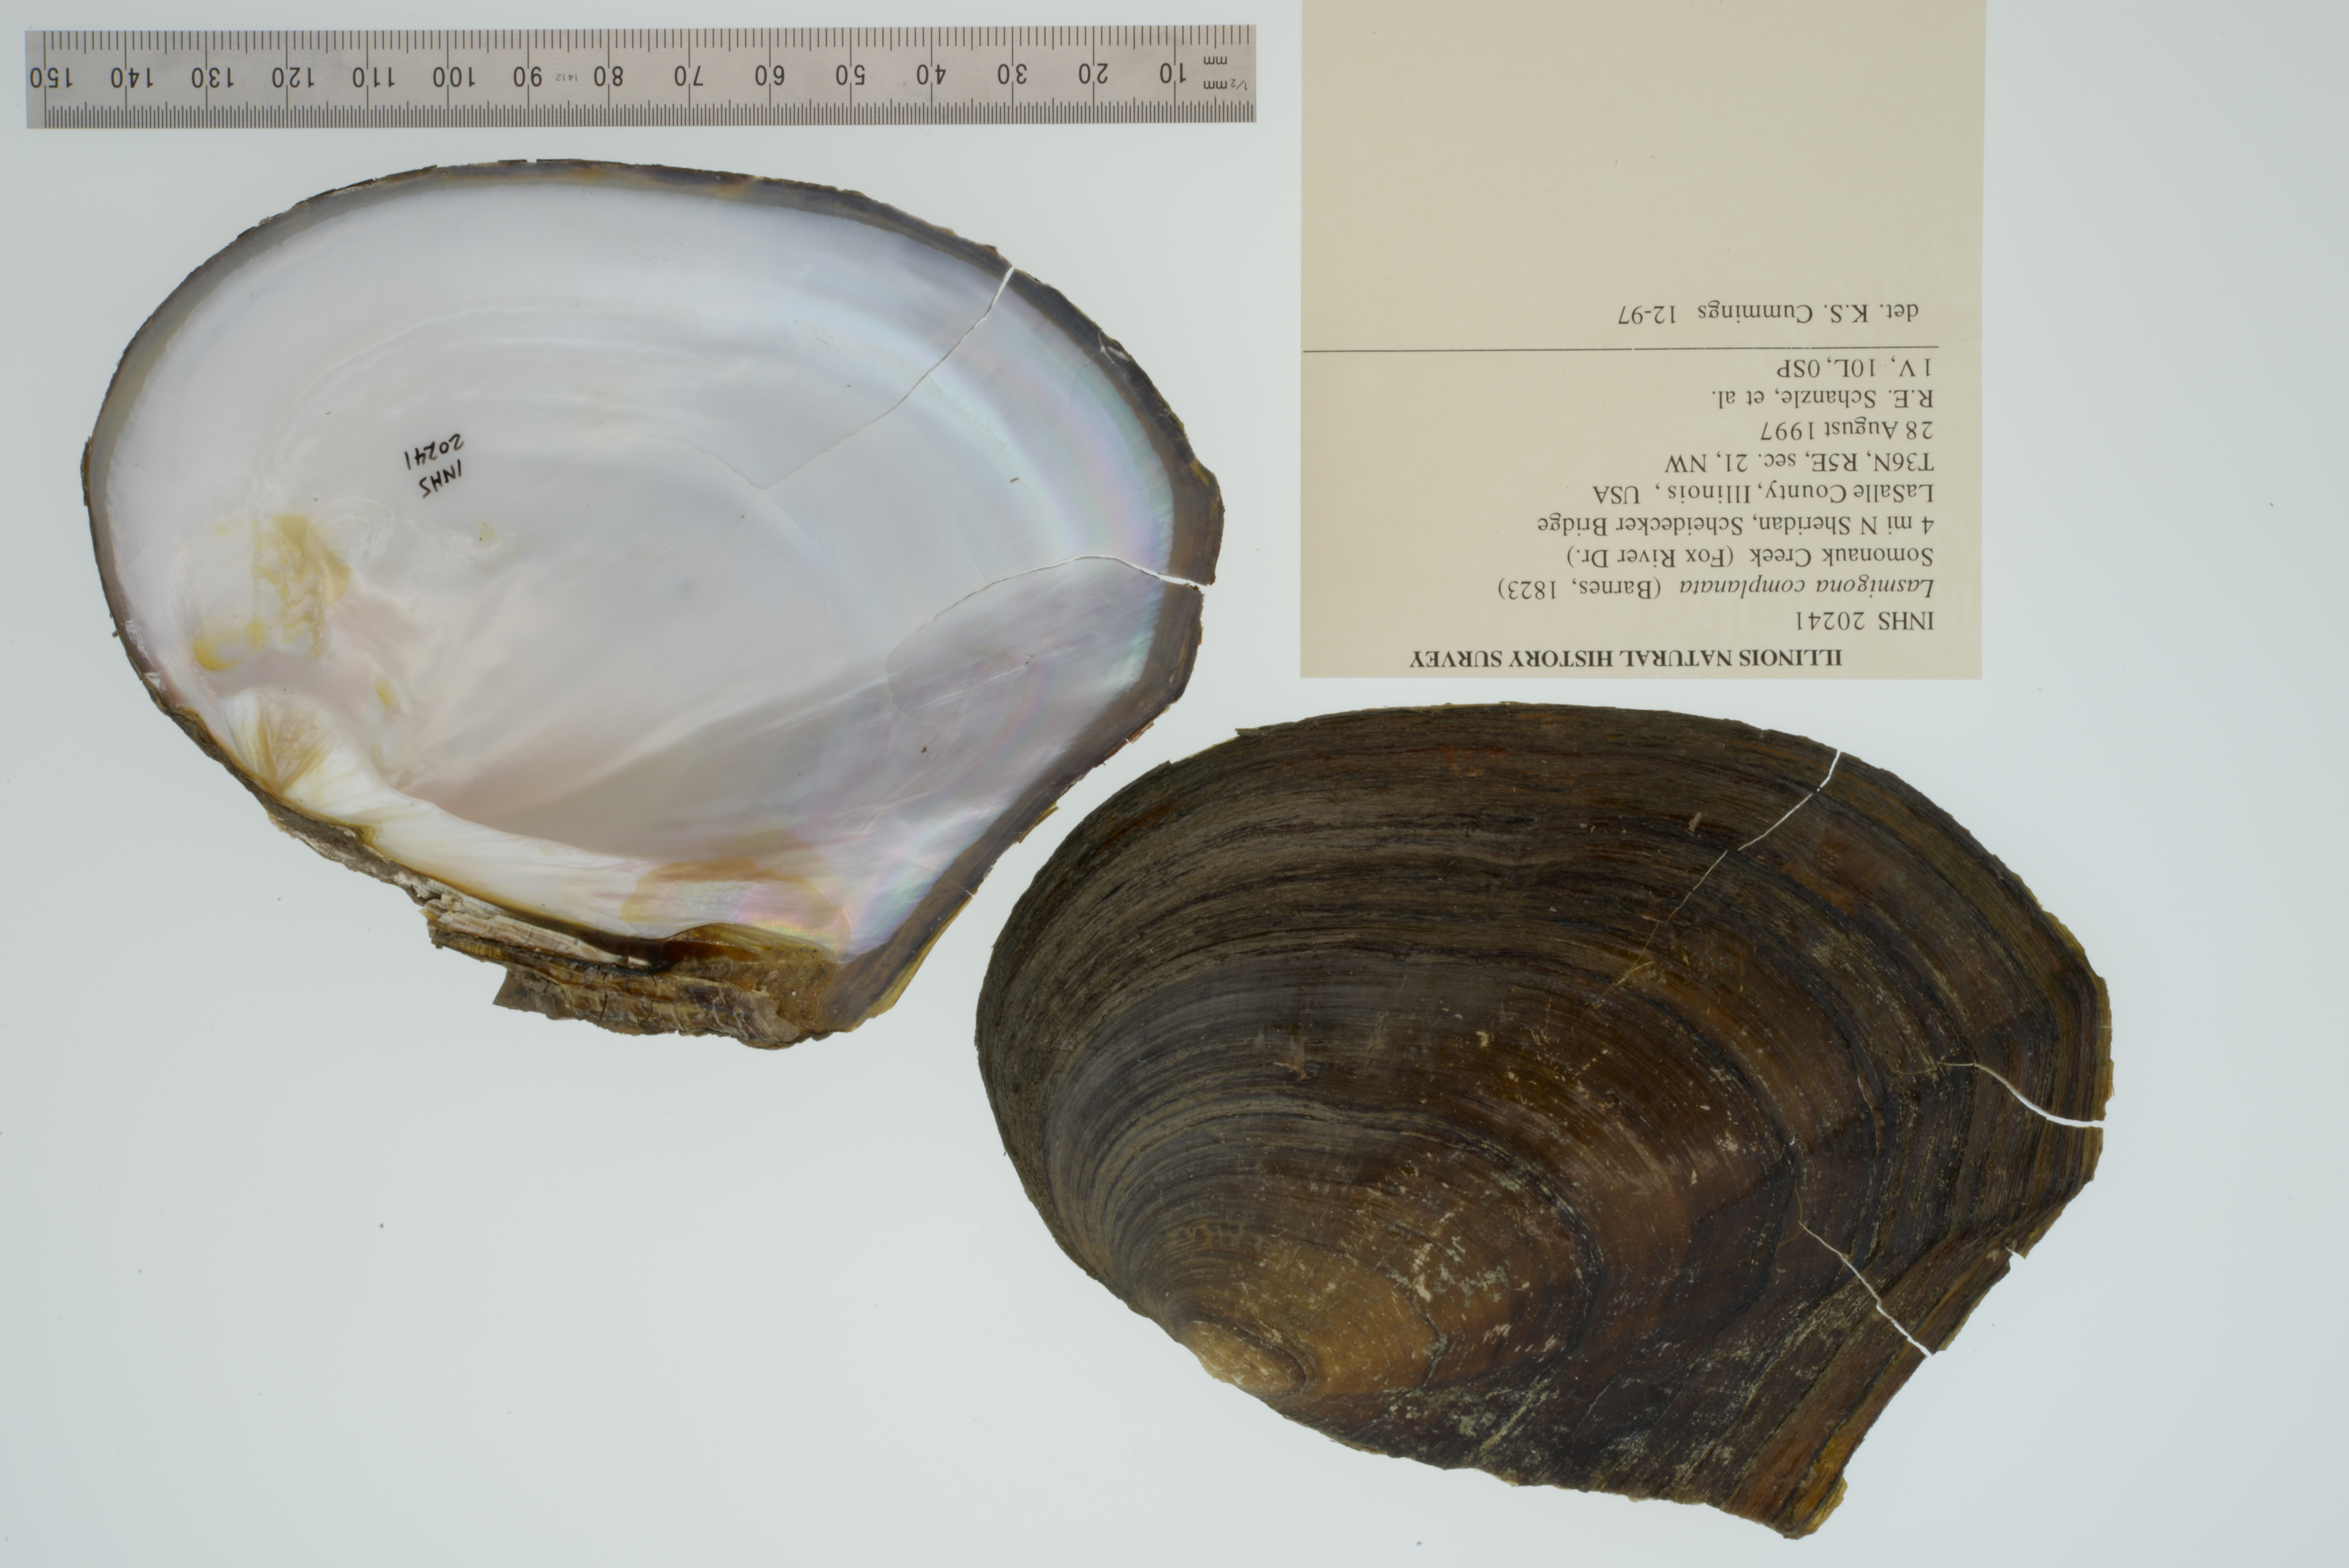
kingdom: Animalia
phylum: Mollusca
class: Bivalvia
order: Unionida
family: Unionidae
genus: Lasmigona
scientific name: Lasmigona complanata
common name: White heelsplitter
